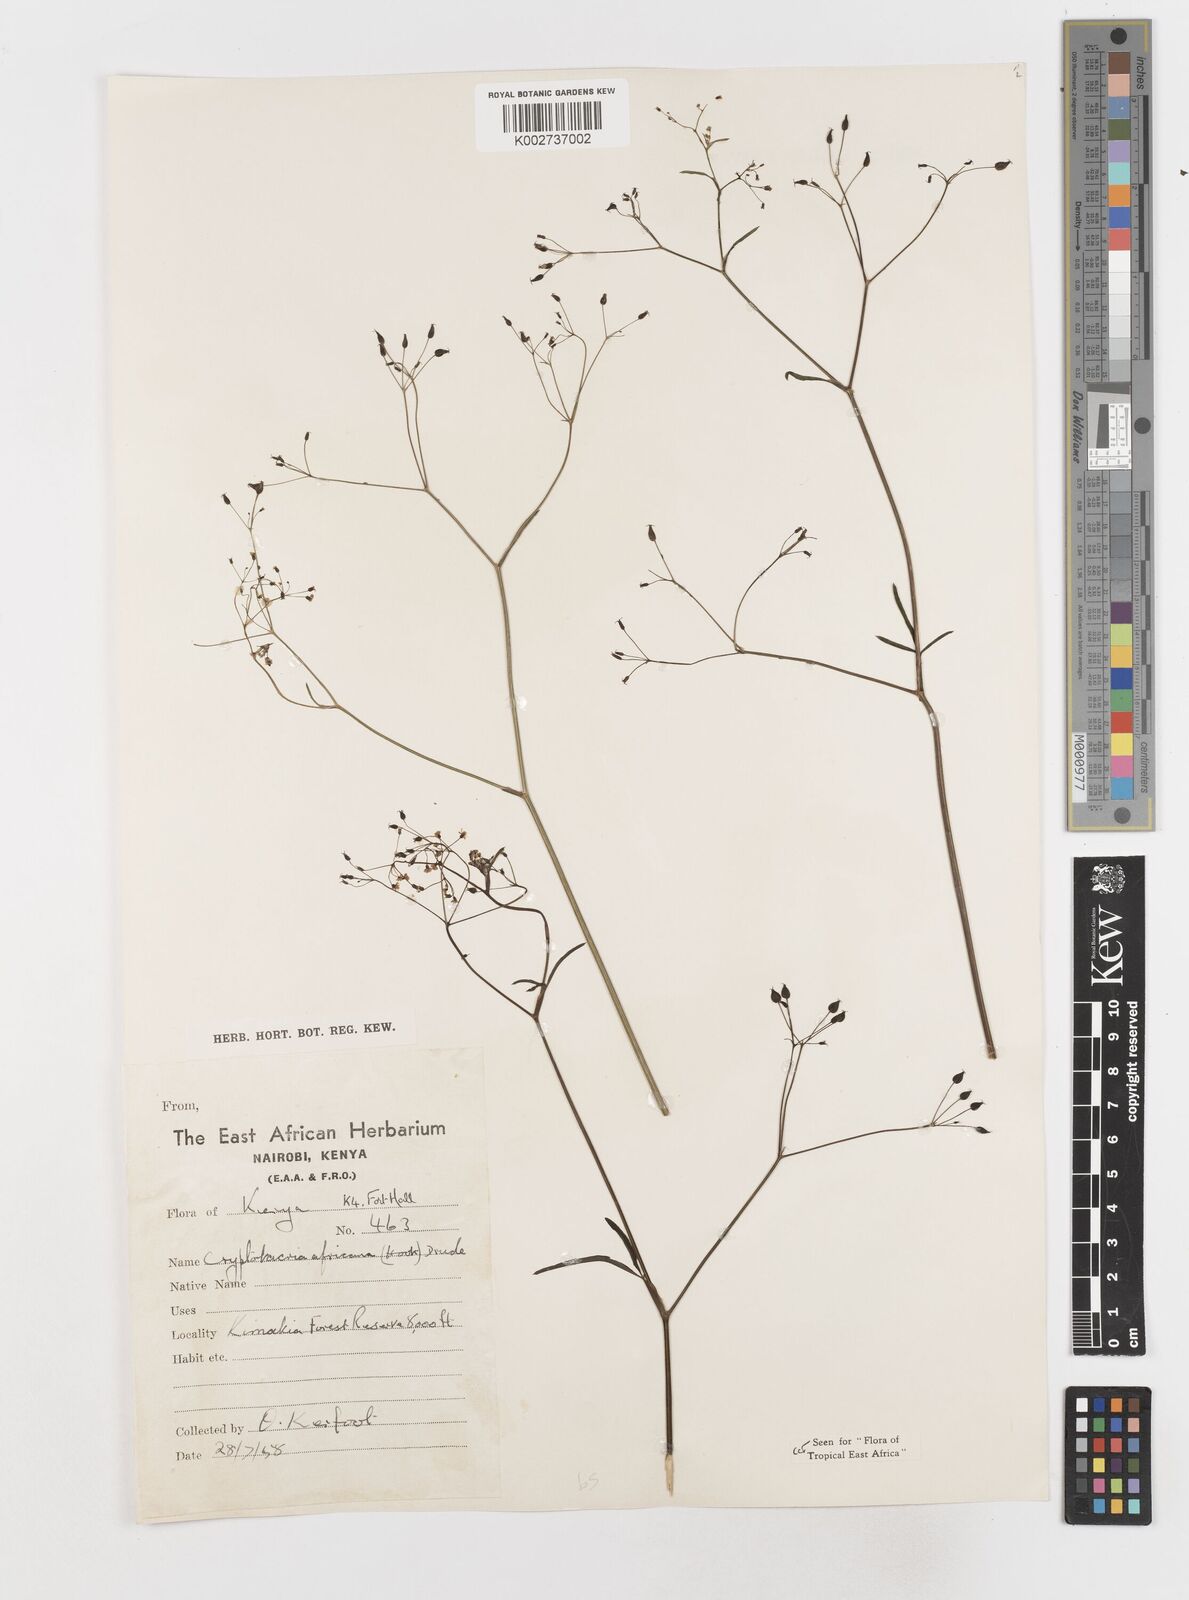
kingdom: Plantae
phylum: Tracheophyta
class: Magnoliopsida
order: Apiales
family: Apiaceae
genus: Cryptotaenia
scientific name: Cryptotaenia africana
